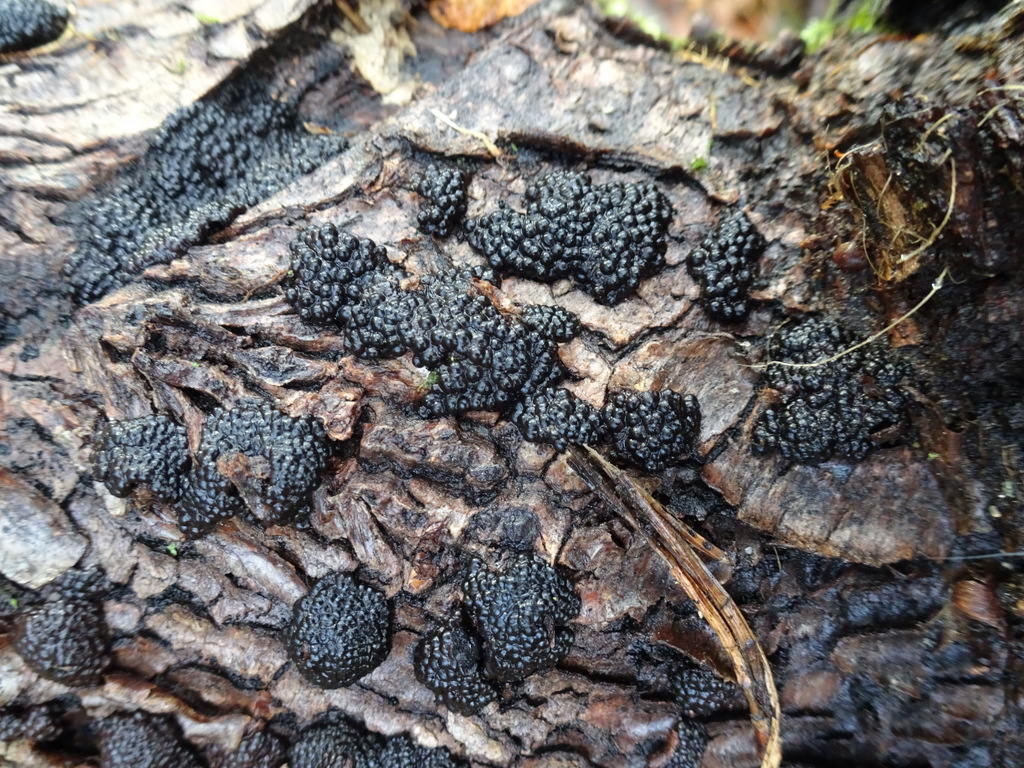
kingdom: Fungi
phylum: Ascomycota
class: Sordariomycetes
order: Xylariales
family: Hypoxylaceae
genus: Jackrogersella
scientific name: Jackrogersella multiformis
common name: foranderlig kulbær
